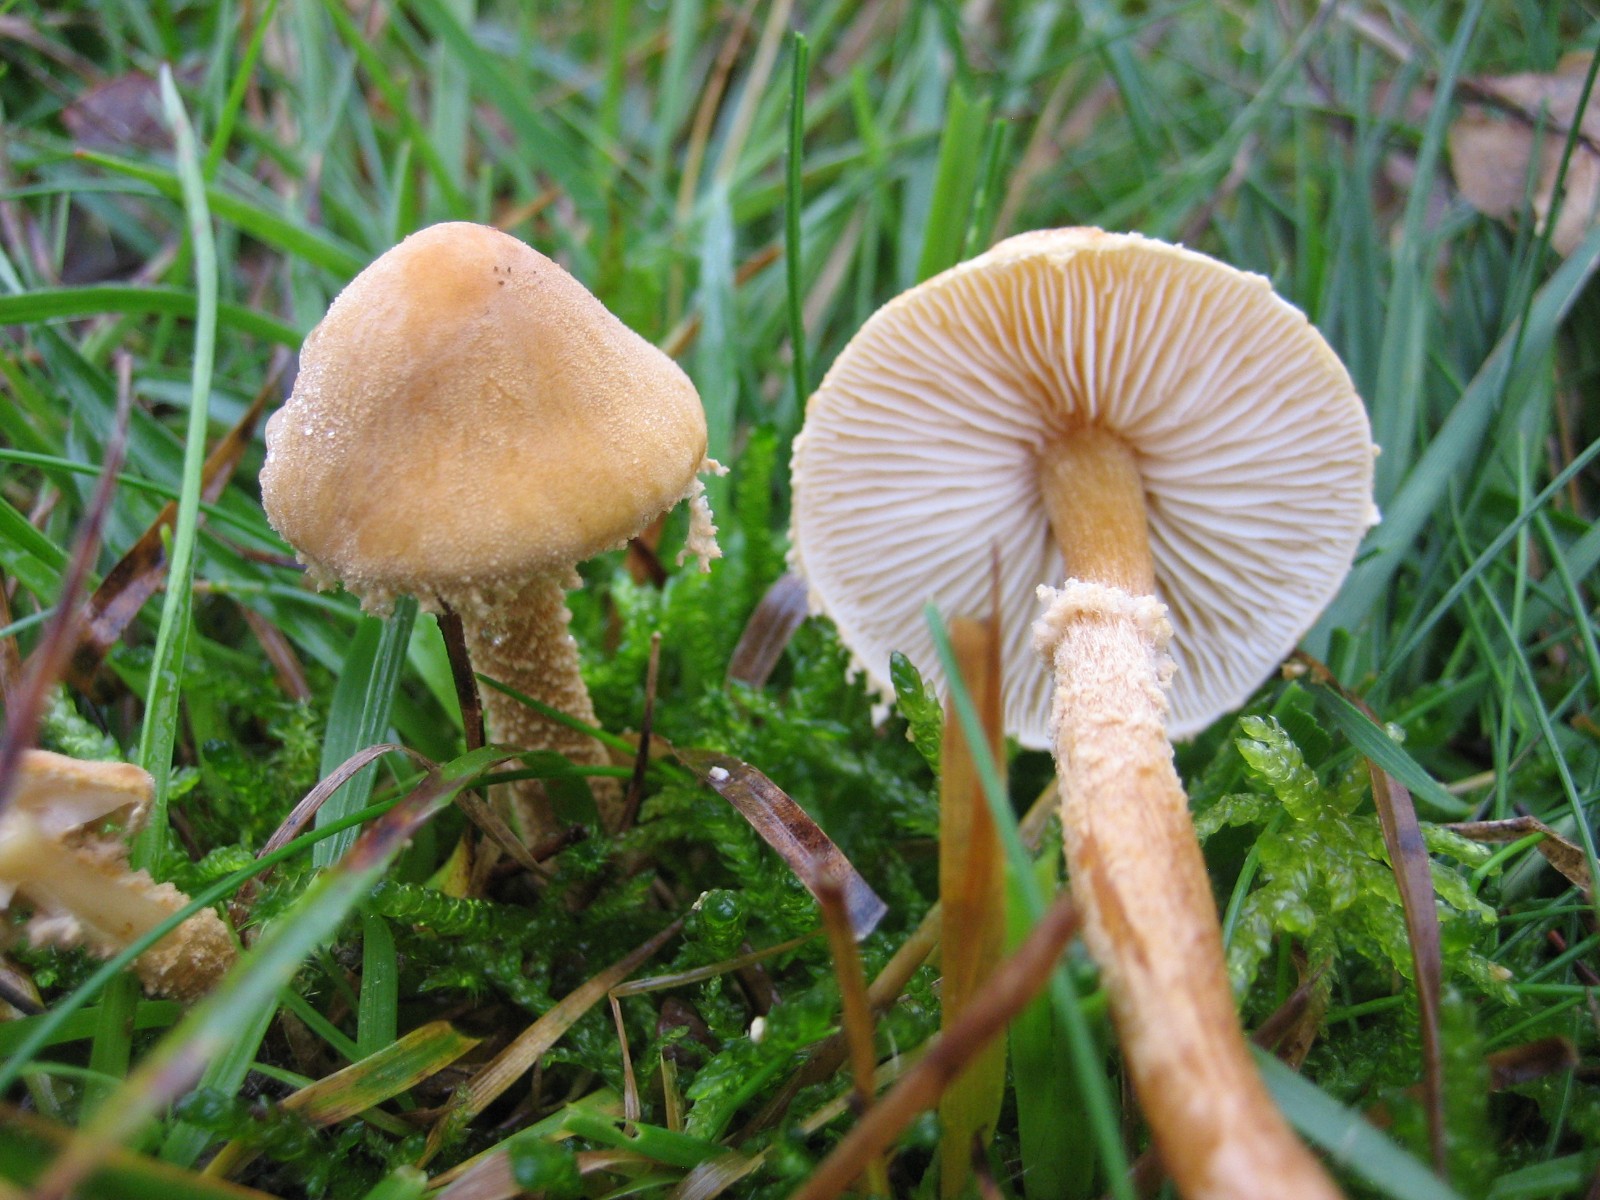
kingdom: Fungi
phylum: Basidiomycota
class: Agaricomycetes
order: Agaricales
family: Tricholomataceae
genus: Cystoderma
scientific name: Cystoderma amianthinum
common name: okkergul grynhat
